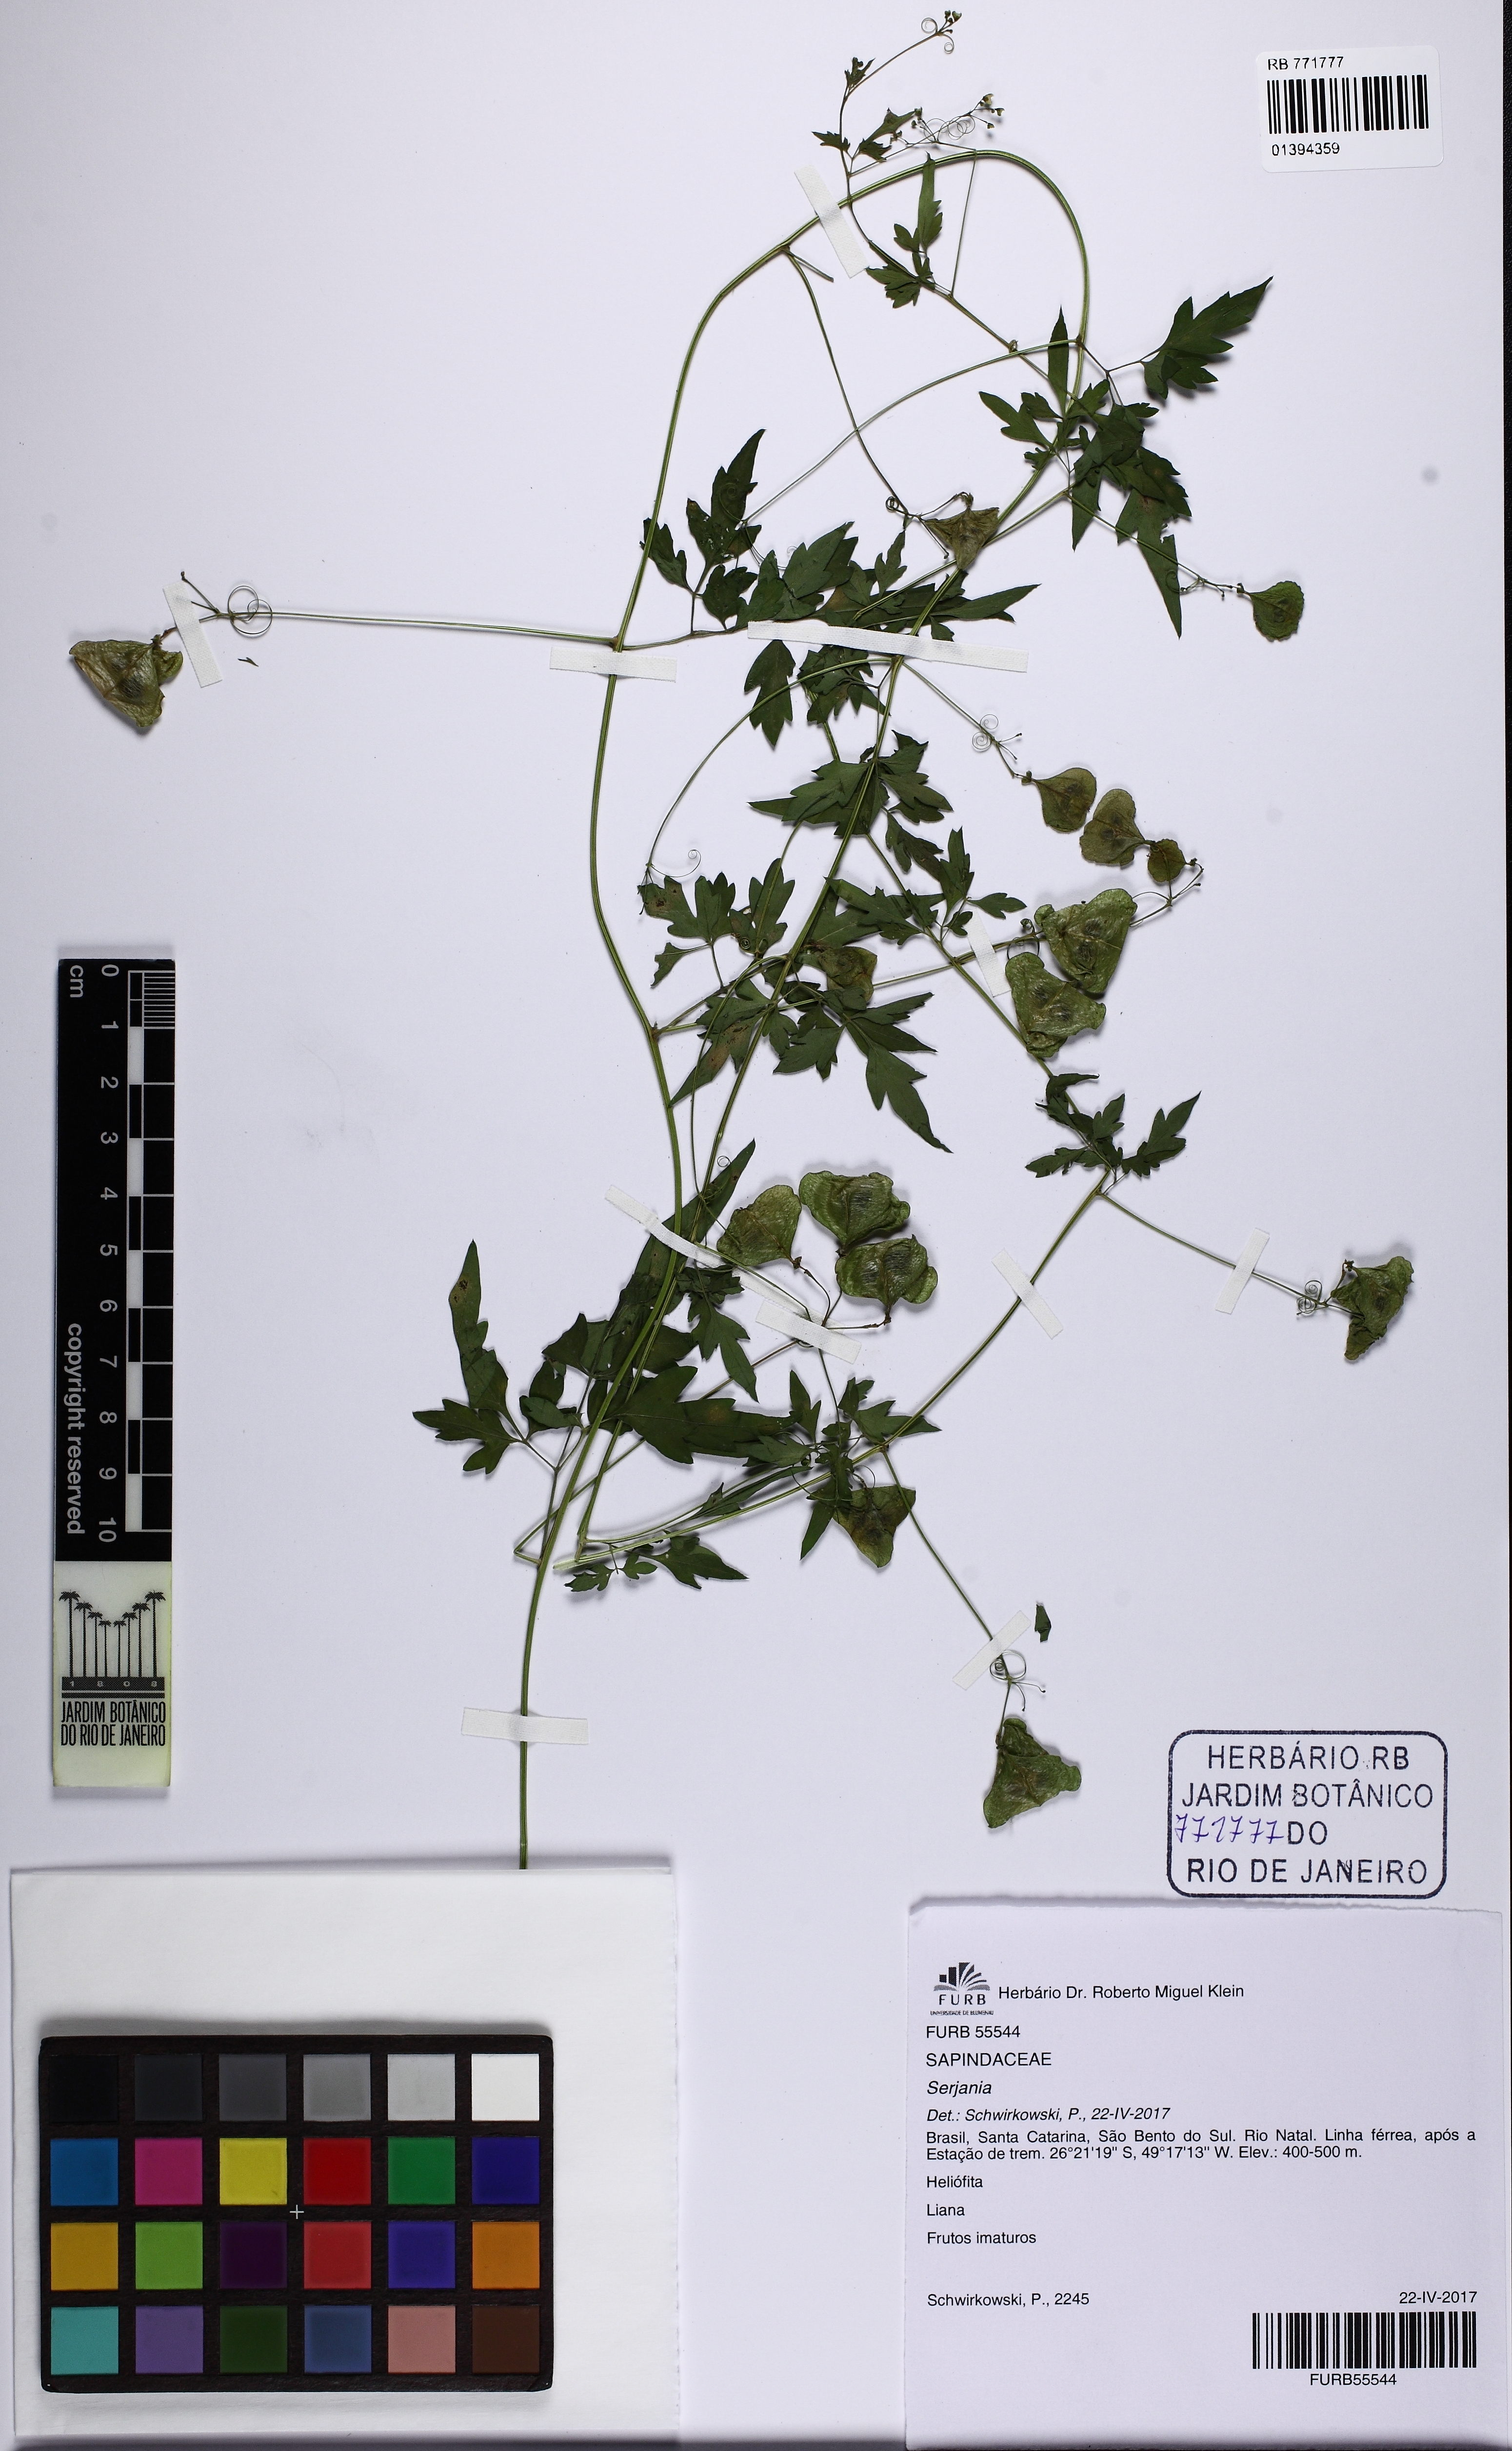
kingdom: Plantae
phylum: Tracheophyta
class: Magnoliopsida
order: Sapindales
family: Sapindaceae
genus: Cardiospermum
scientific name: Cardiospermum microcarpum
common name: Heart seed
